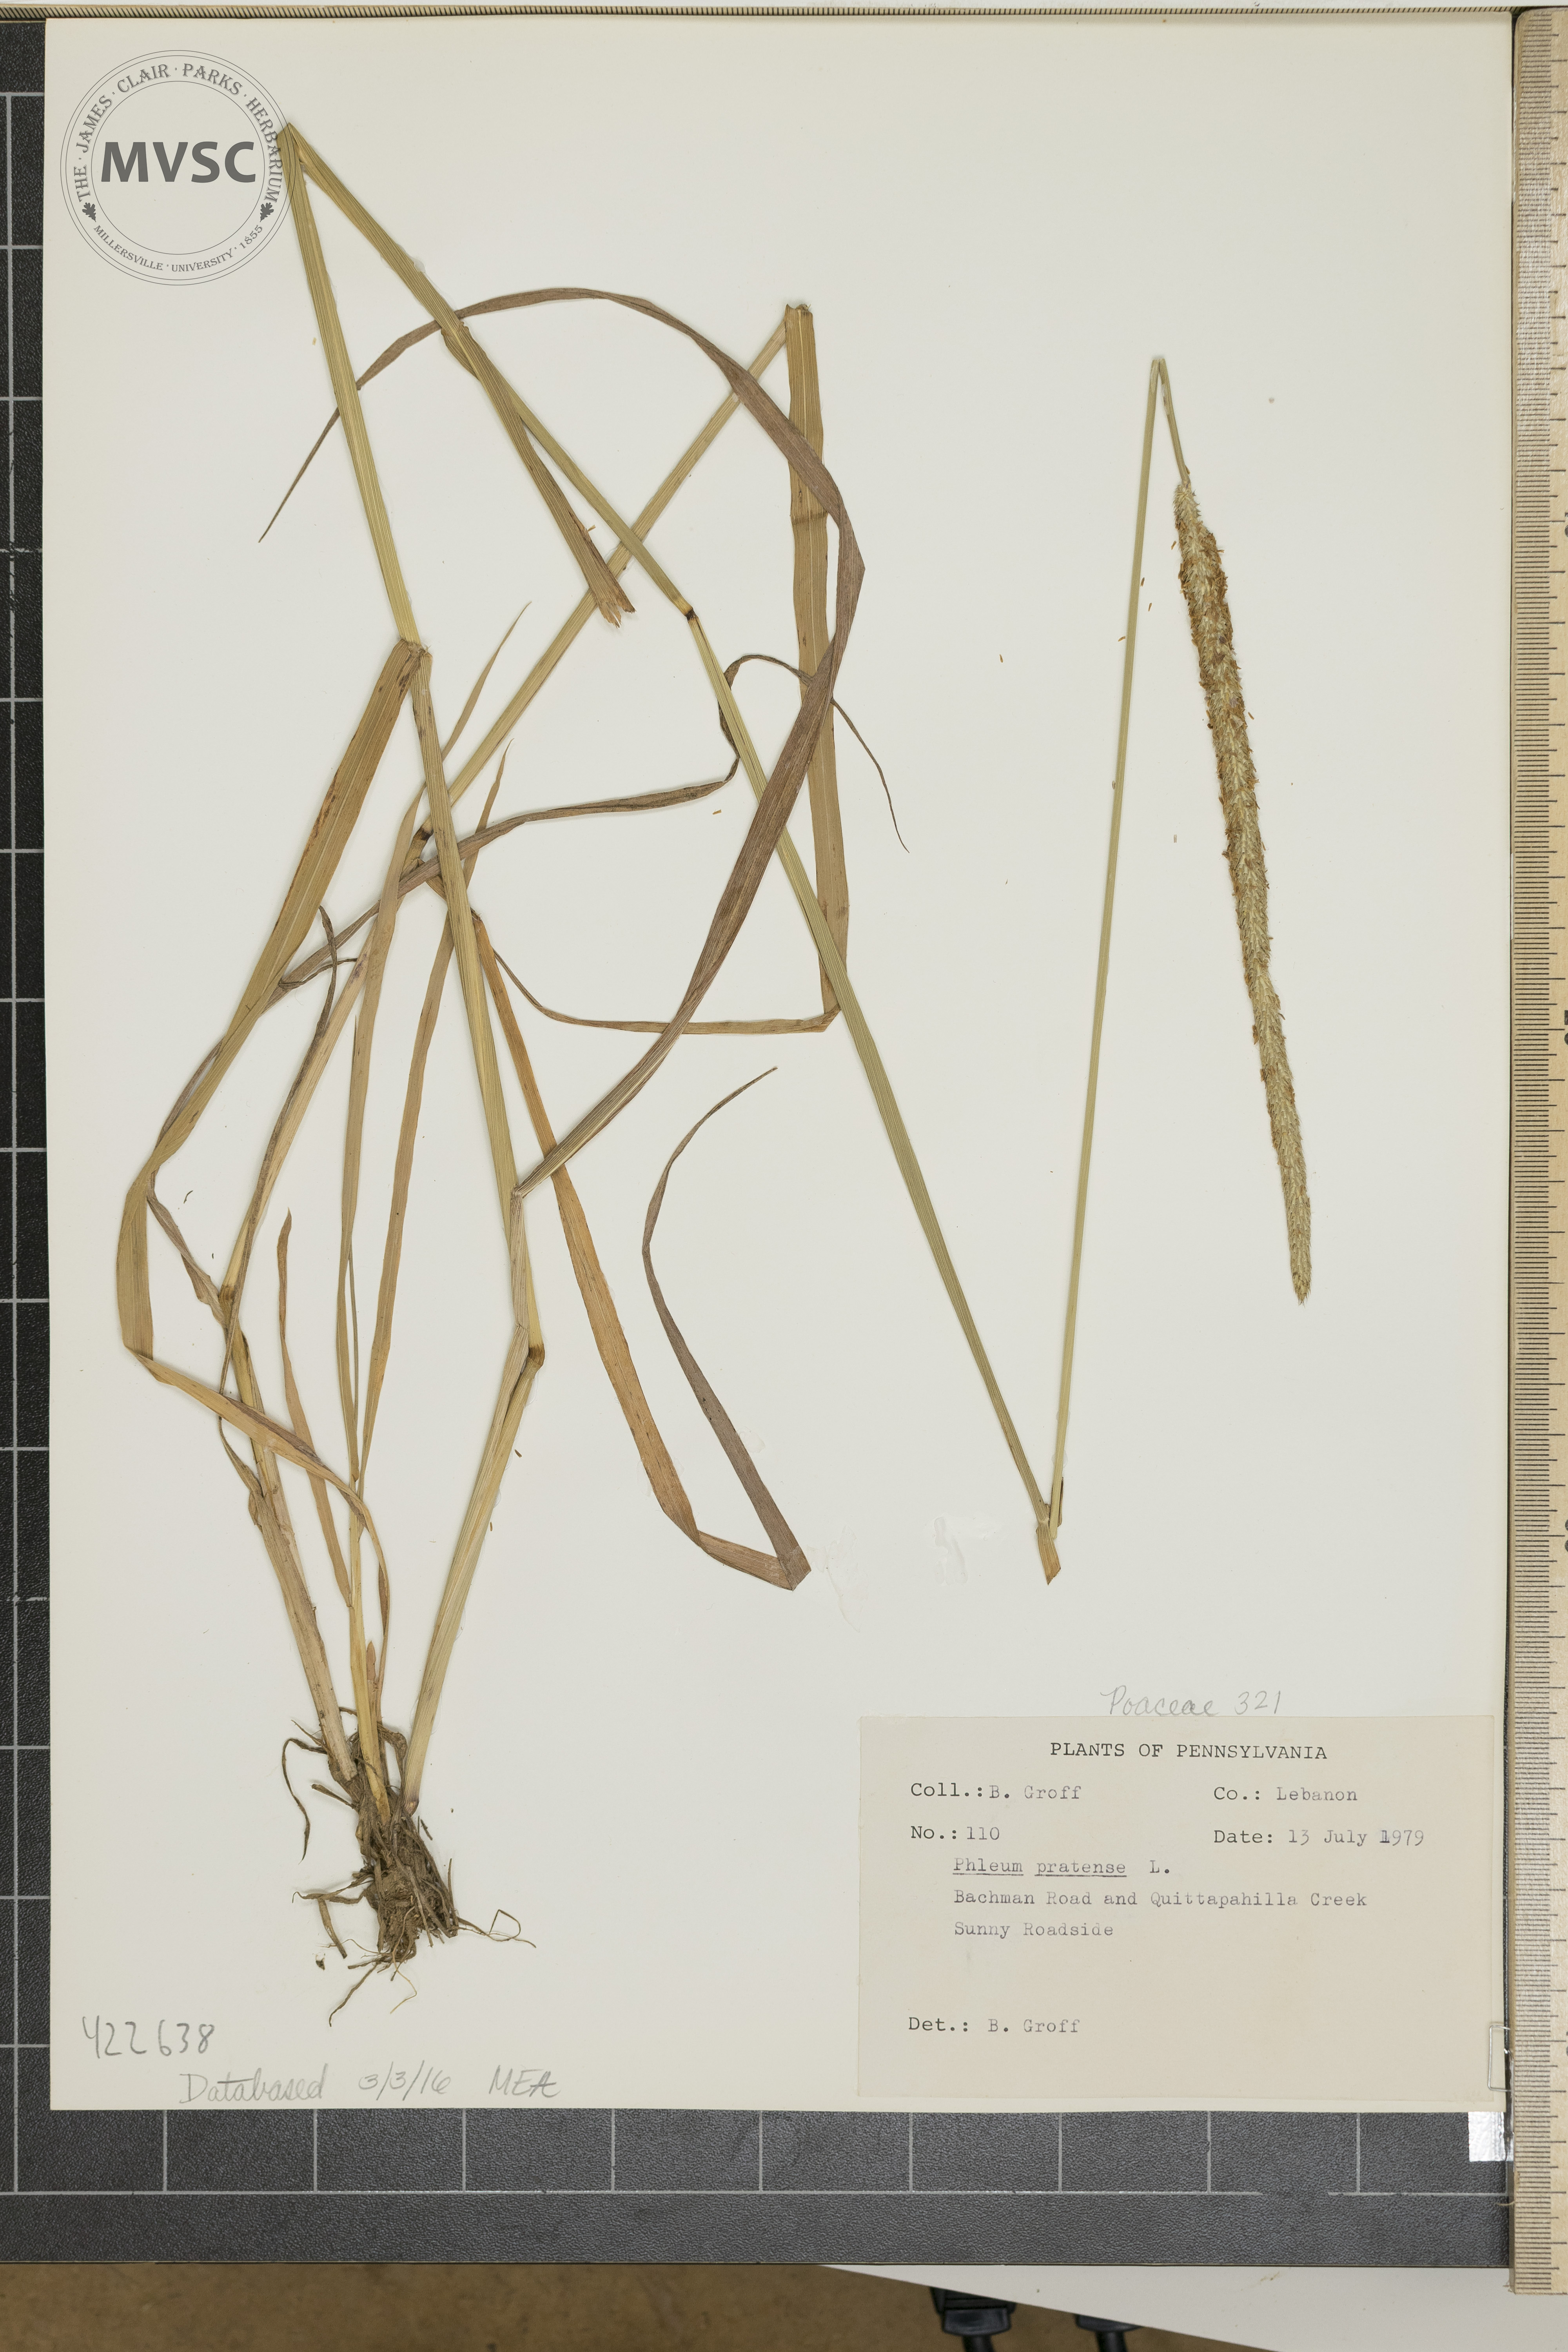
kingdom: Plantae
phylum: Tracheophyta
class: Liliopsida
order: Poales
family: Poaceae
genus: Phleum
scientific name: Phleum pratense
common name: Timothy grass
